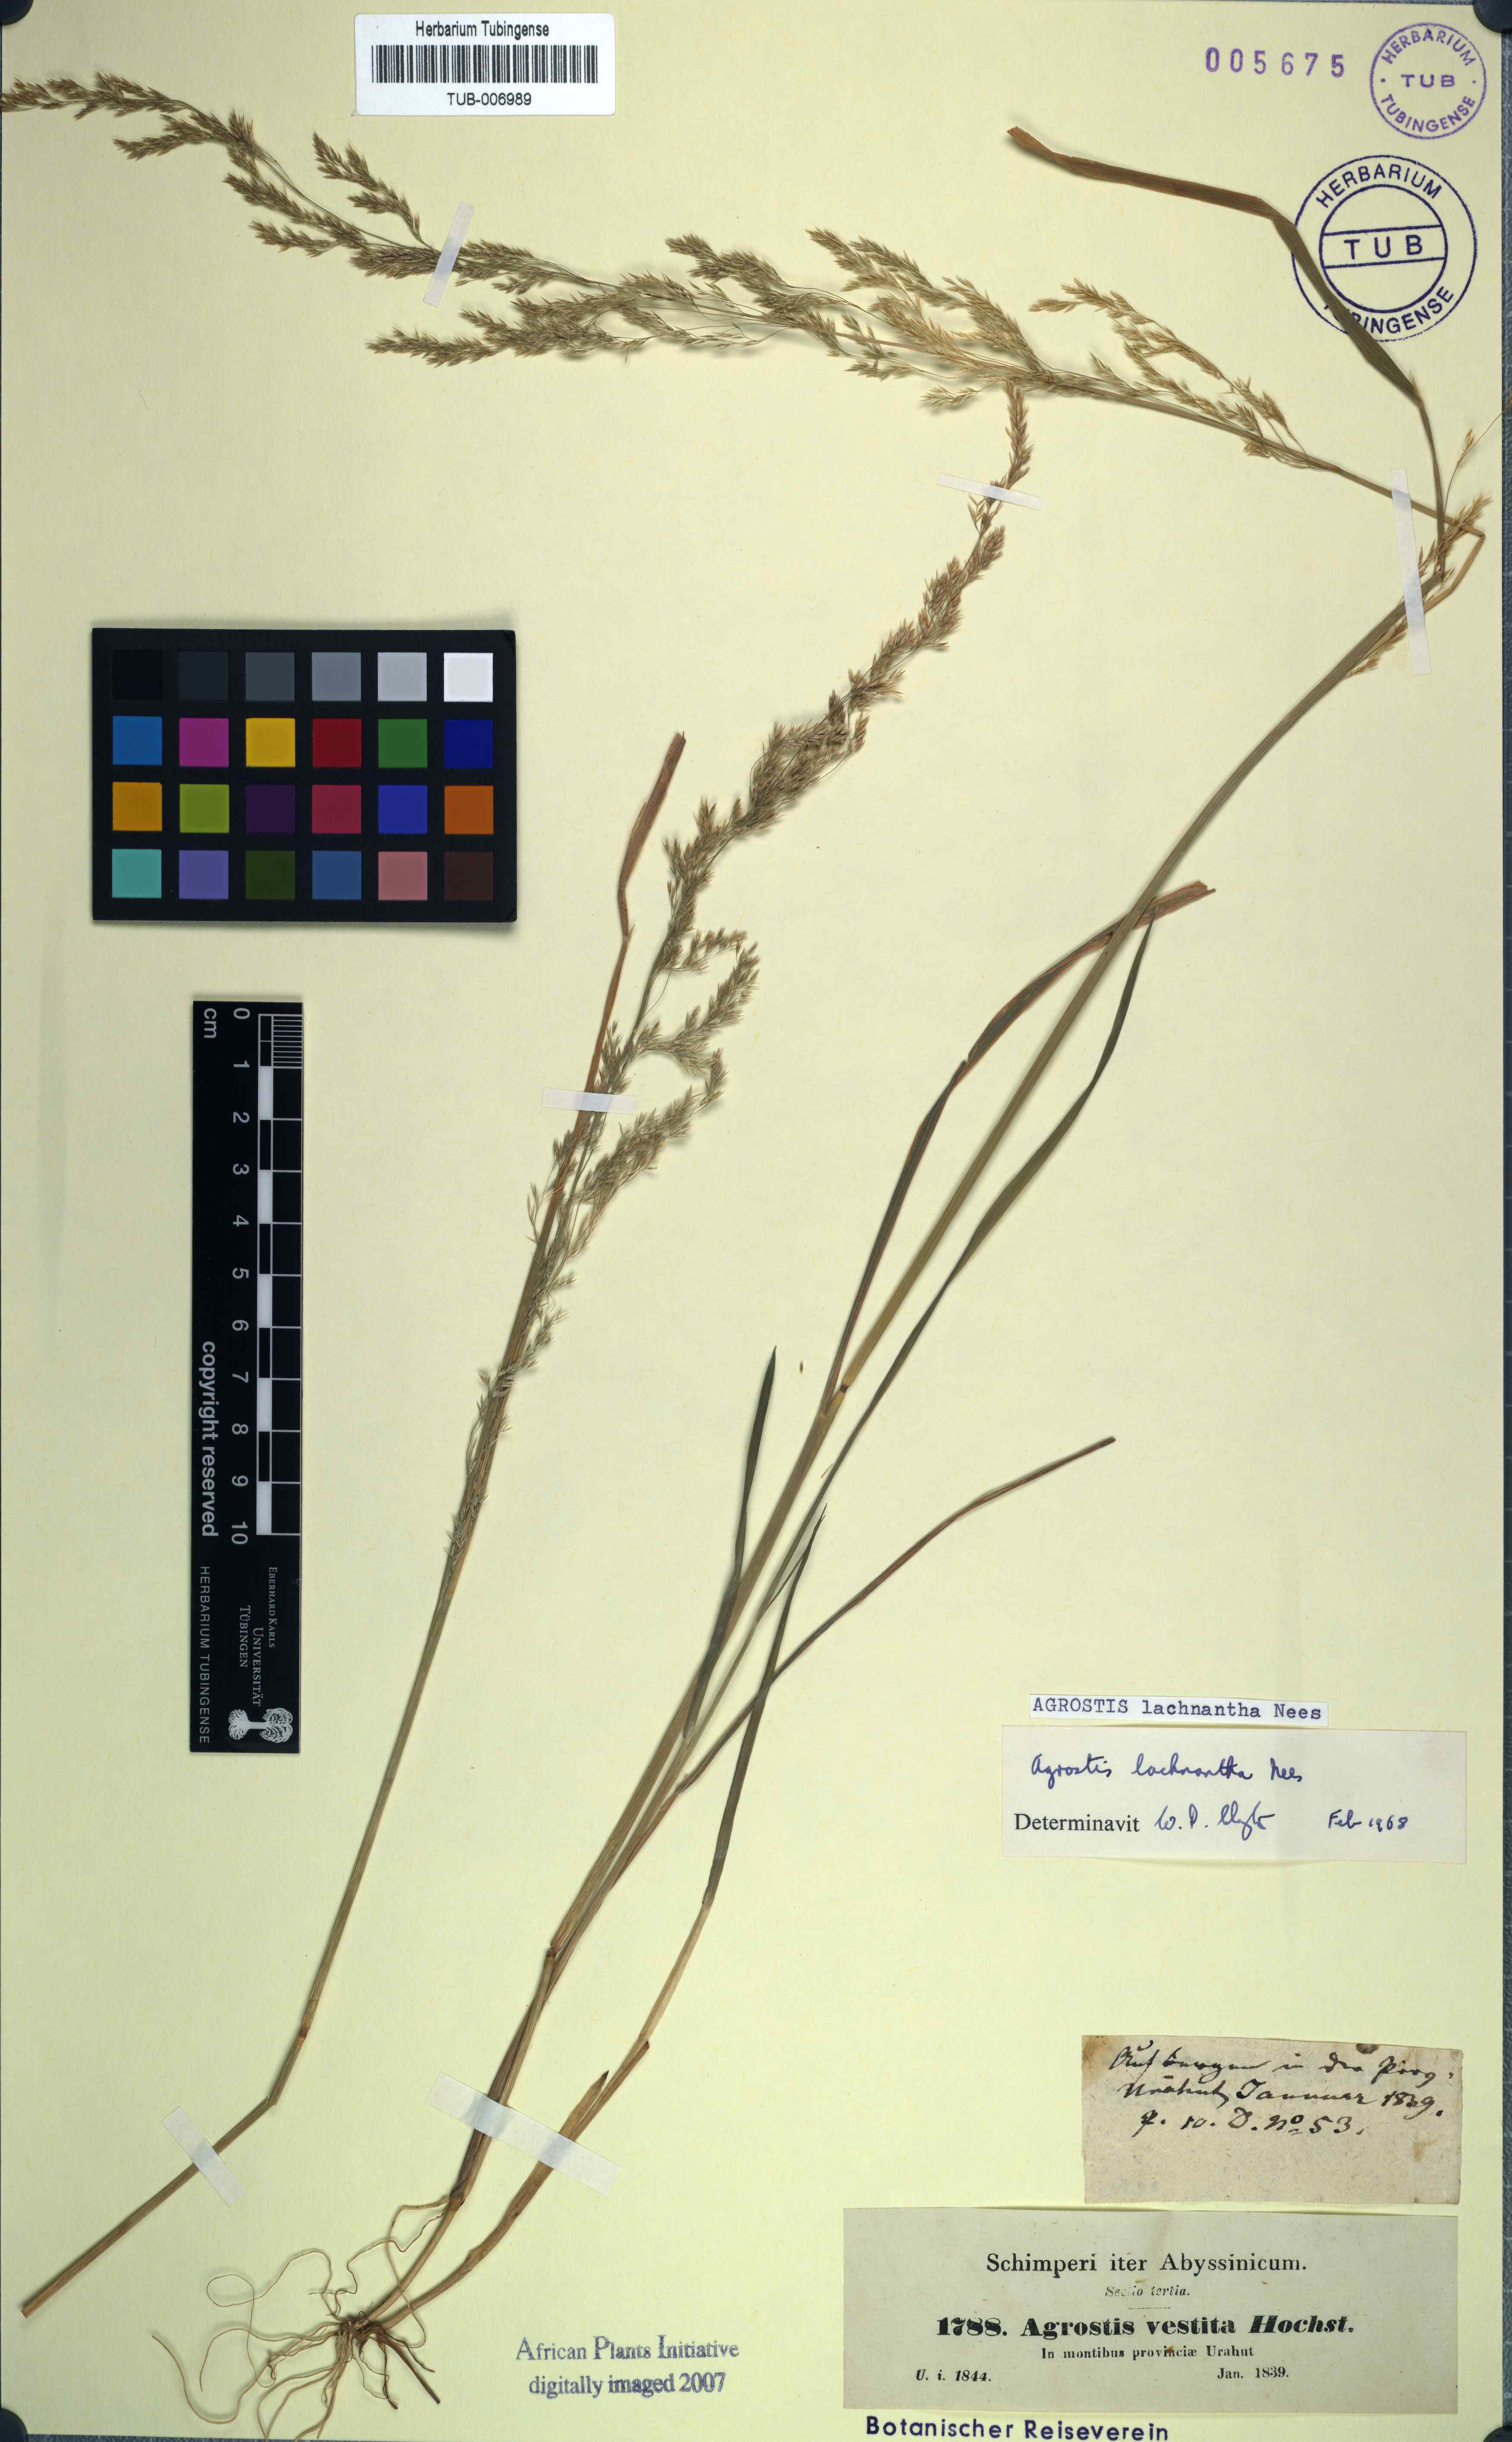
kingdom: Plantae
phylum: Tracheophyta
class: Liliopsida
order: Poales
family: Poaceae
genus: Lachnagrostis
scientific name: Lachnagrostis lachnantha
